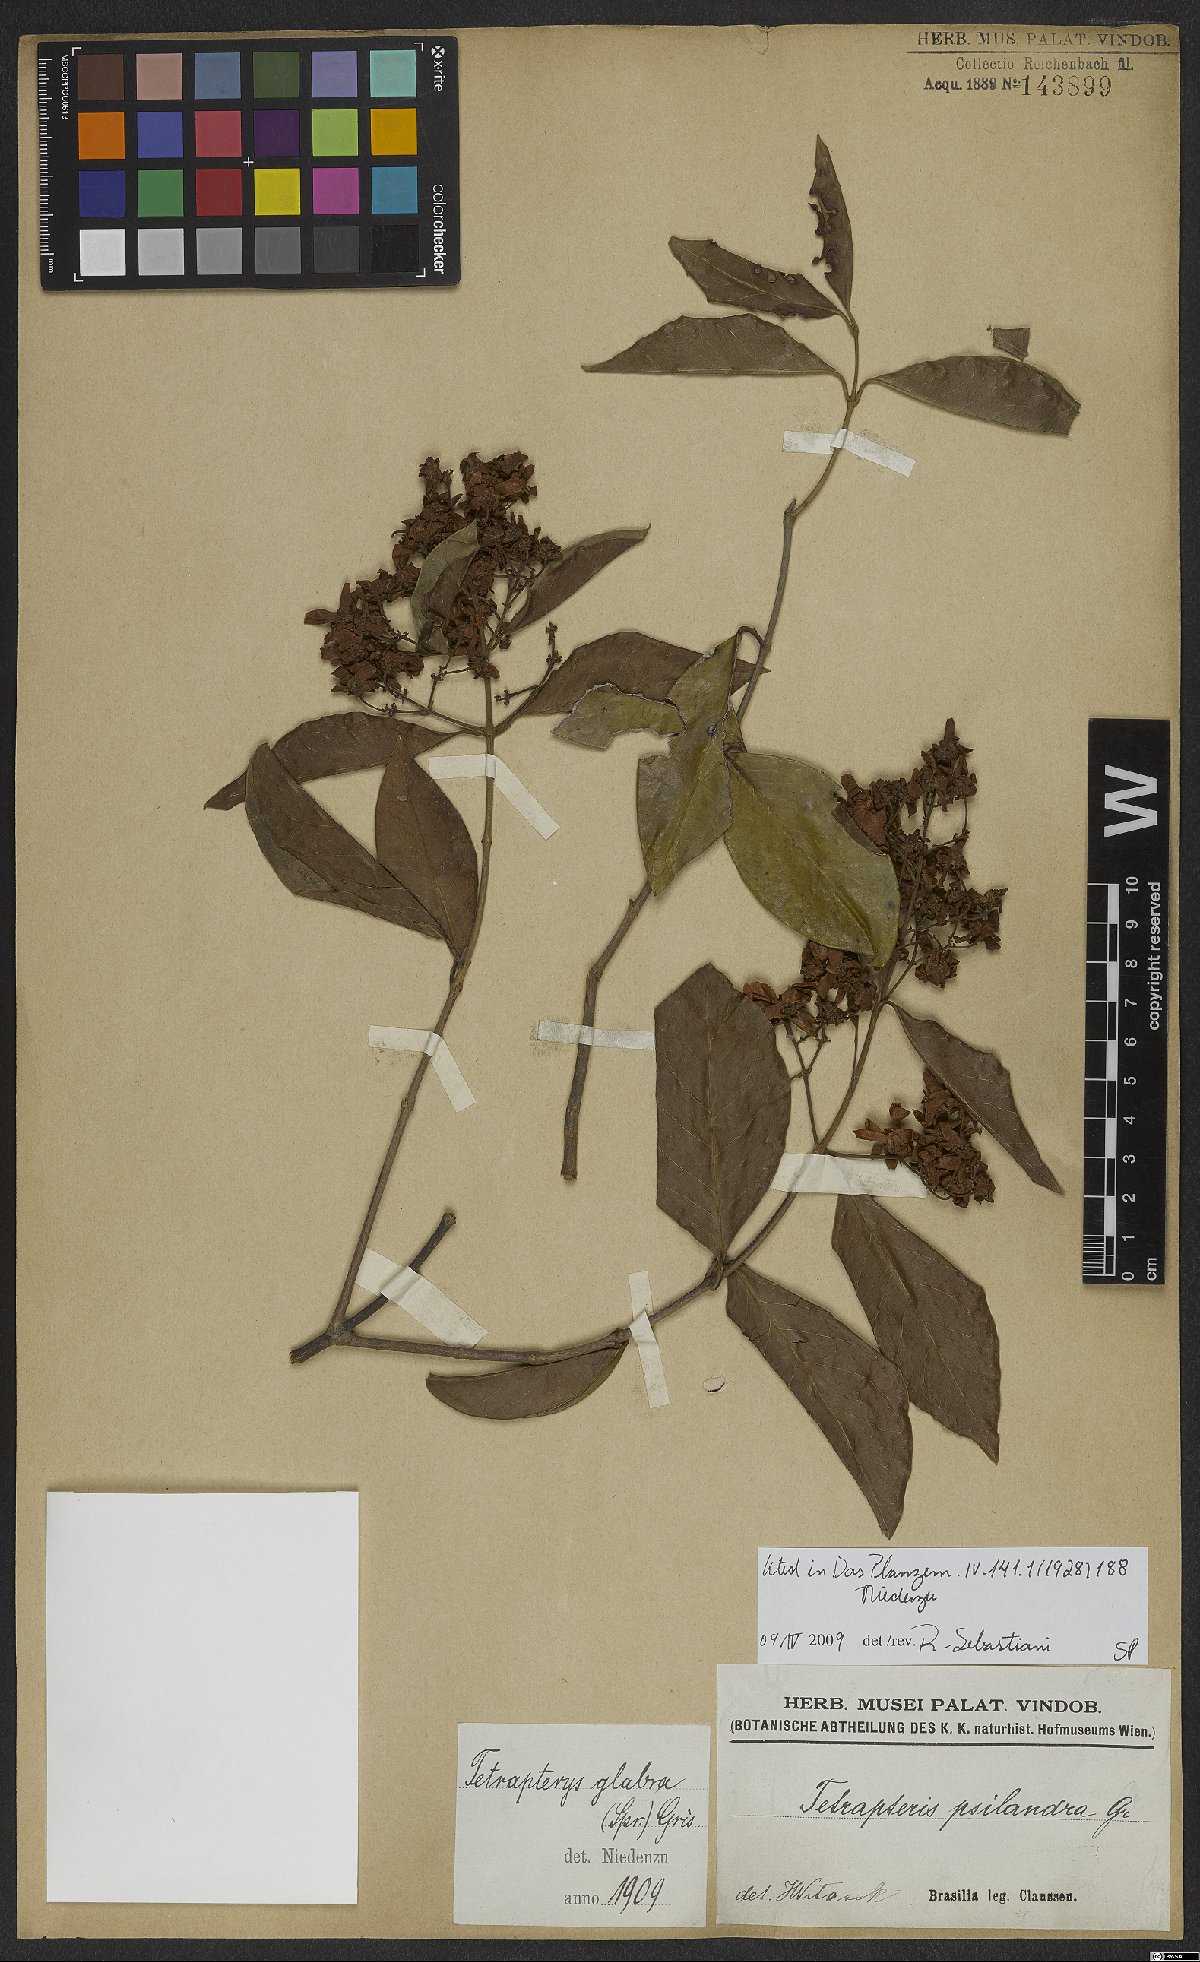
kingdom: Plantae
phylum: Tracheophyta
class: Magnoliopsida
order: Malpighiales
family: Malpighiaceae
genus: Niedenzuella
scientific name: Niedenzuella glabra
